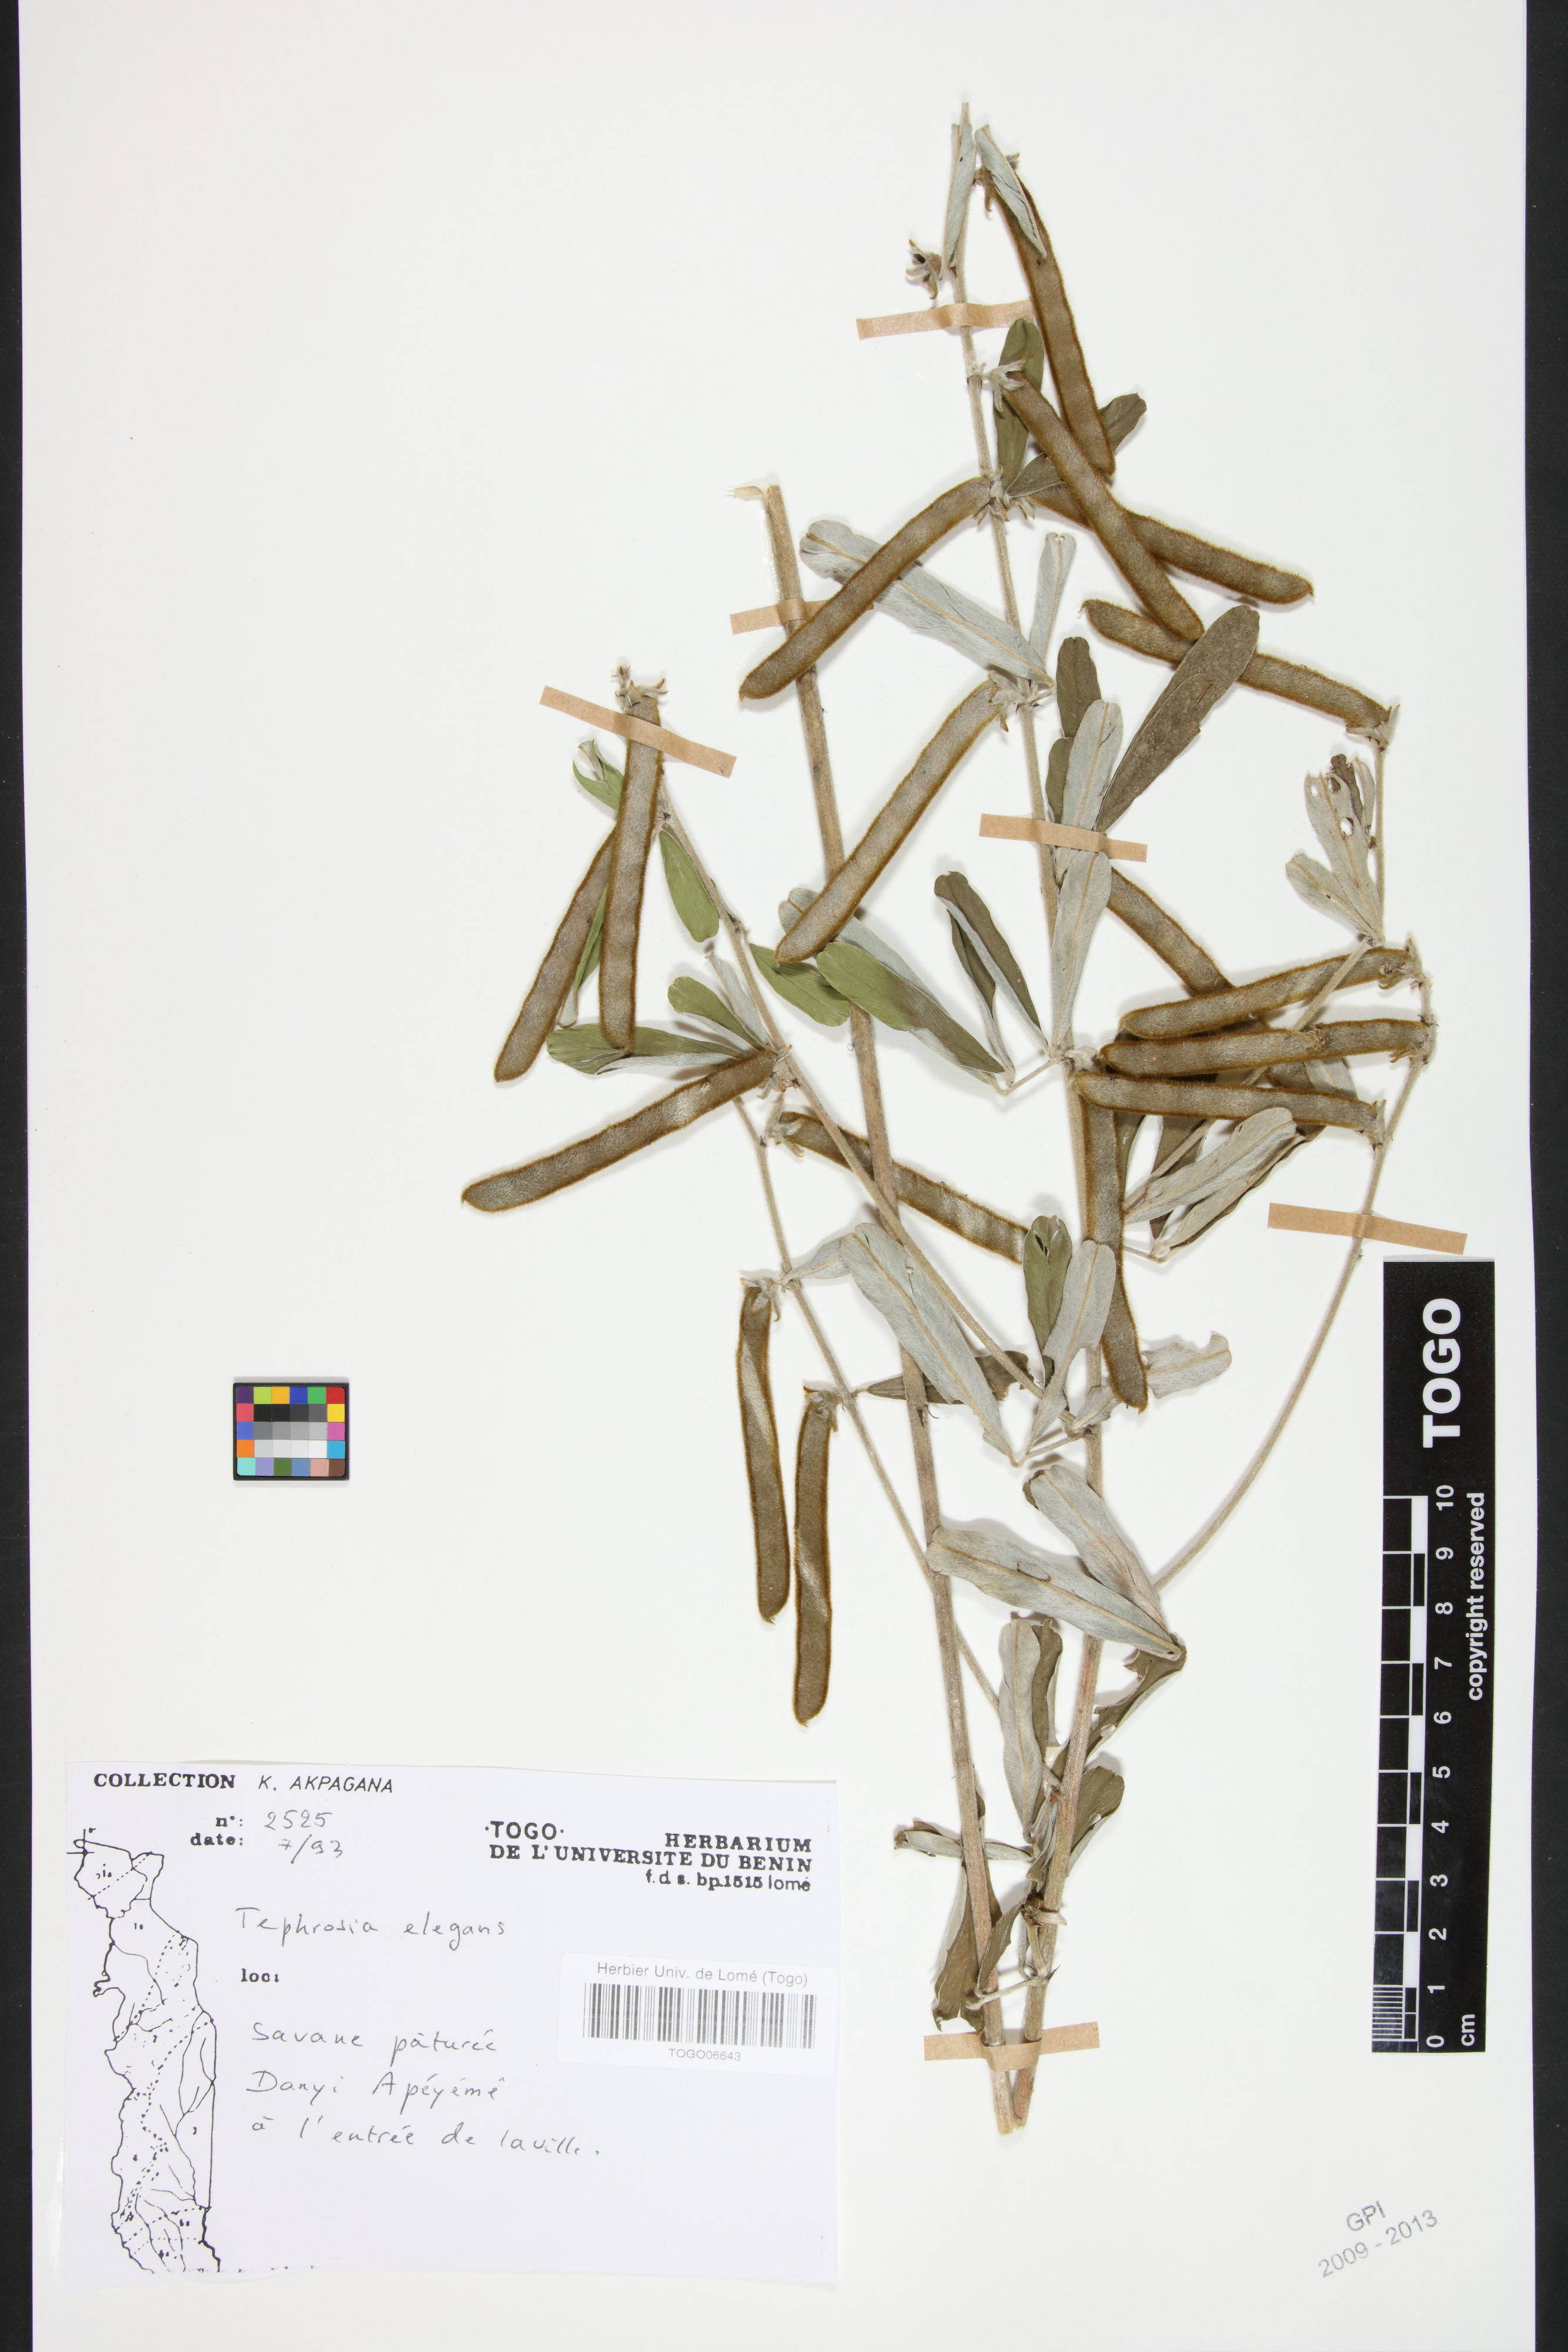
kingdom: Plantae
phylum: Tracheophyta
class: Magnoliopsida
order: Fabales
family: Fabaceae
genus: Tephrosia
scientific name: Tephrosia elegans
